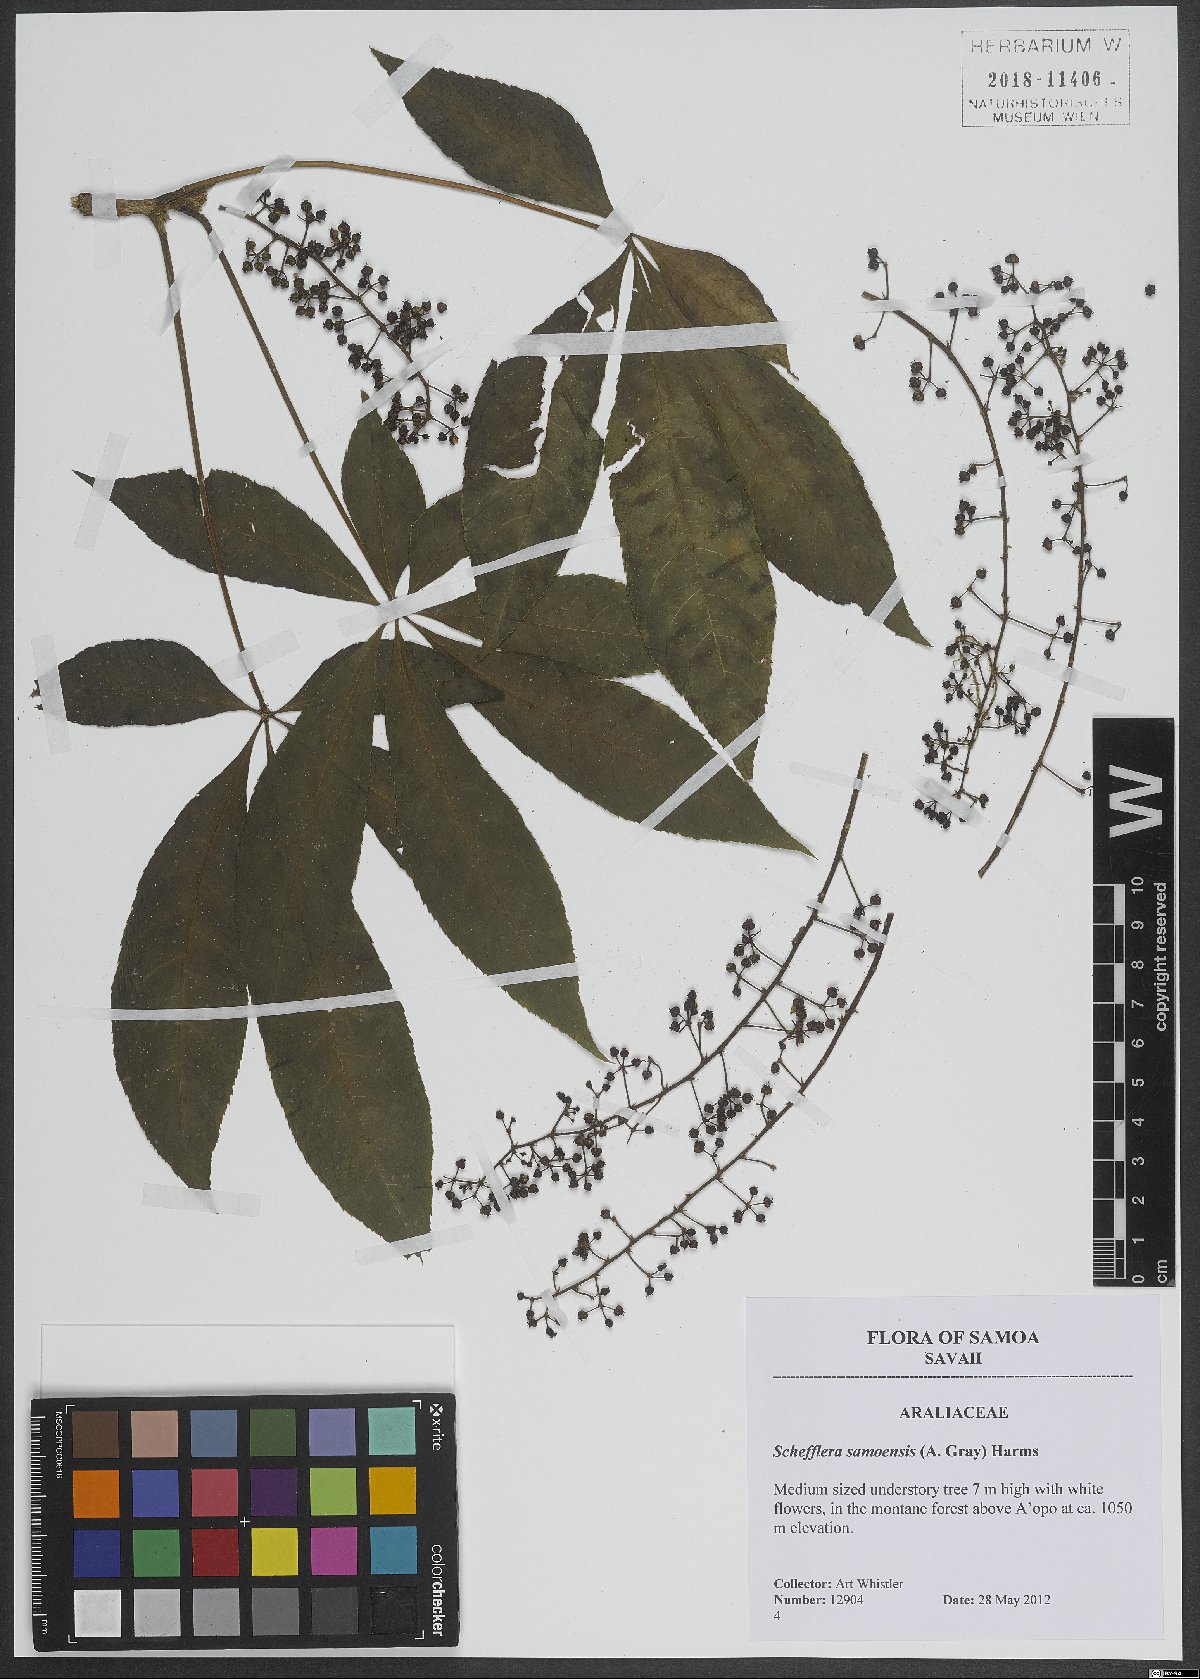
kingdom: Plantae
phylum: Tracheophyta
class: Magnoliopsida
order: Apiales
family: Araliaceae
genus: Schefflera
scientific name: Schefflera samoensis
